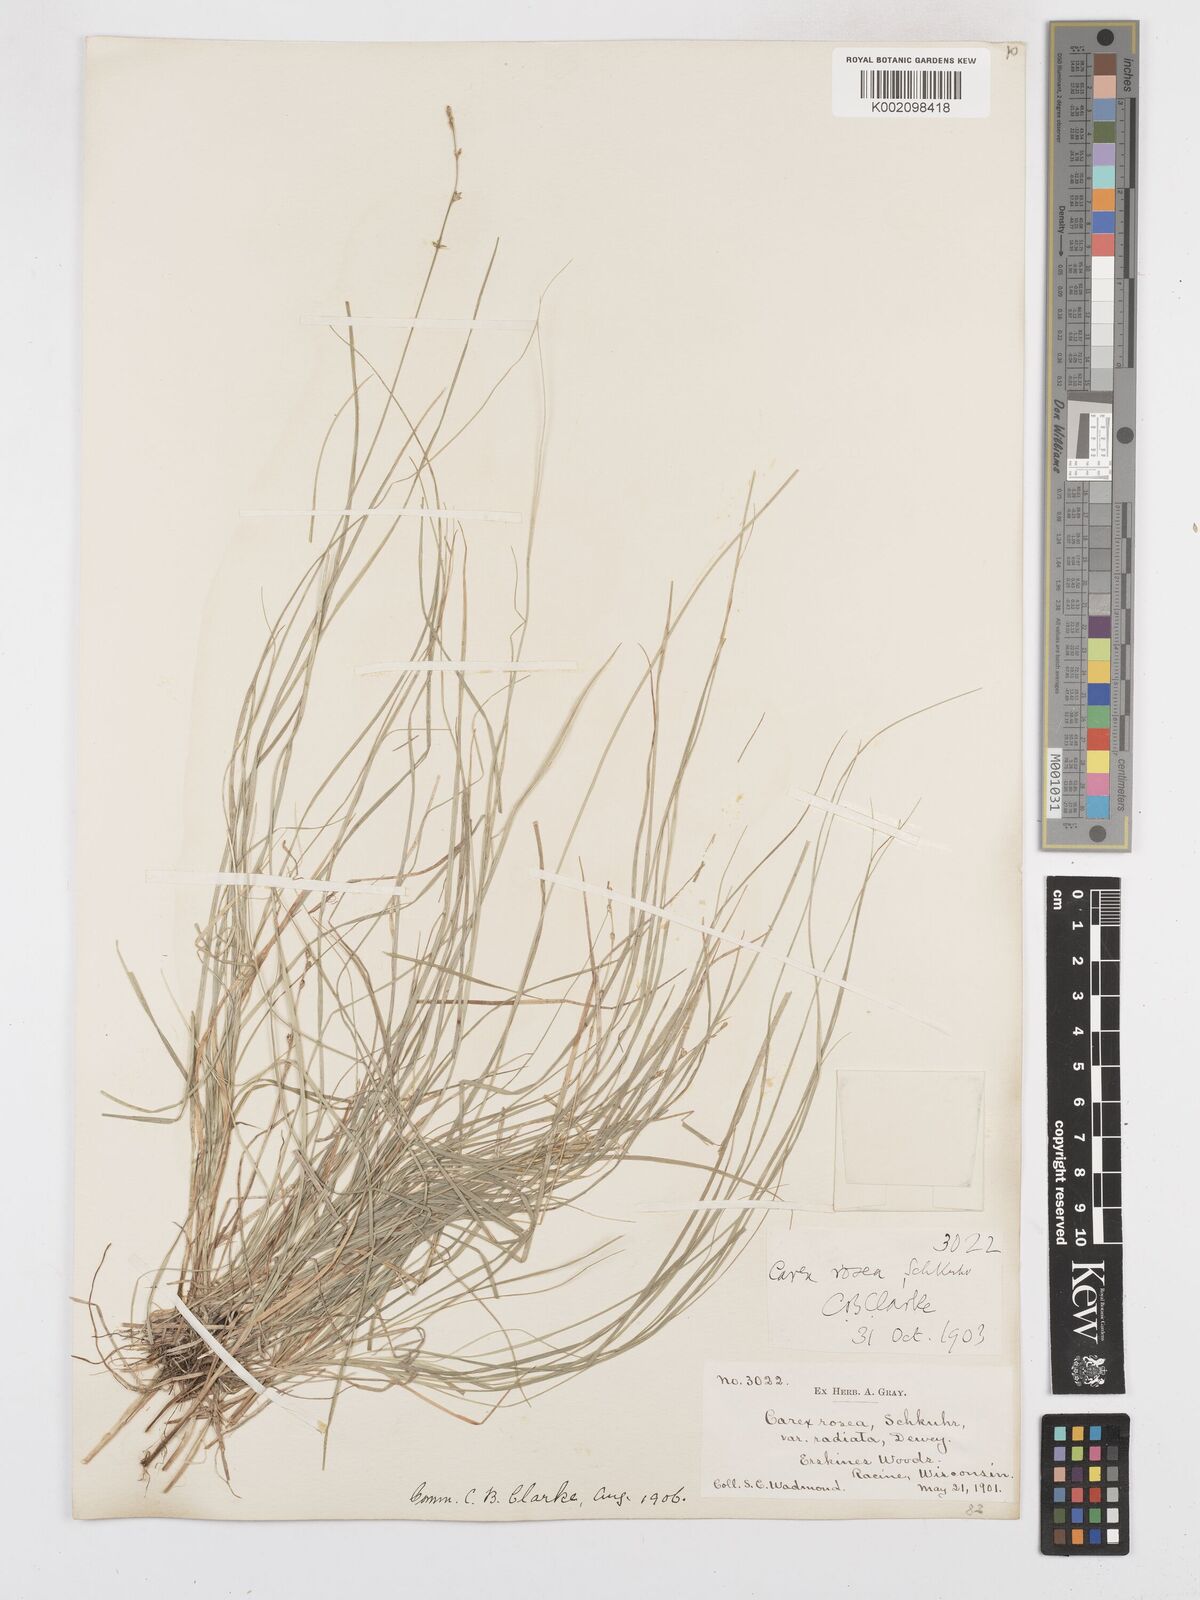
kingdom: Plantae
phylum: Tracheophyta
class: Liliopsida
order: Poales
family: Cyperaceae
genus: Carex
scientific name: Carex
